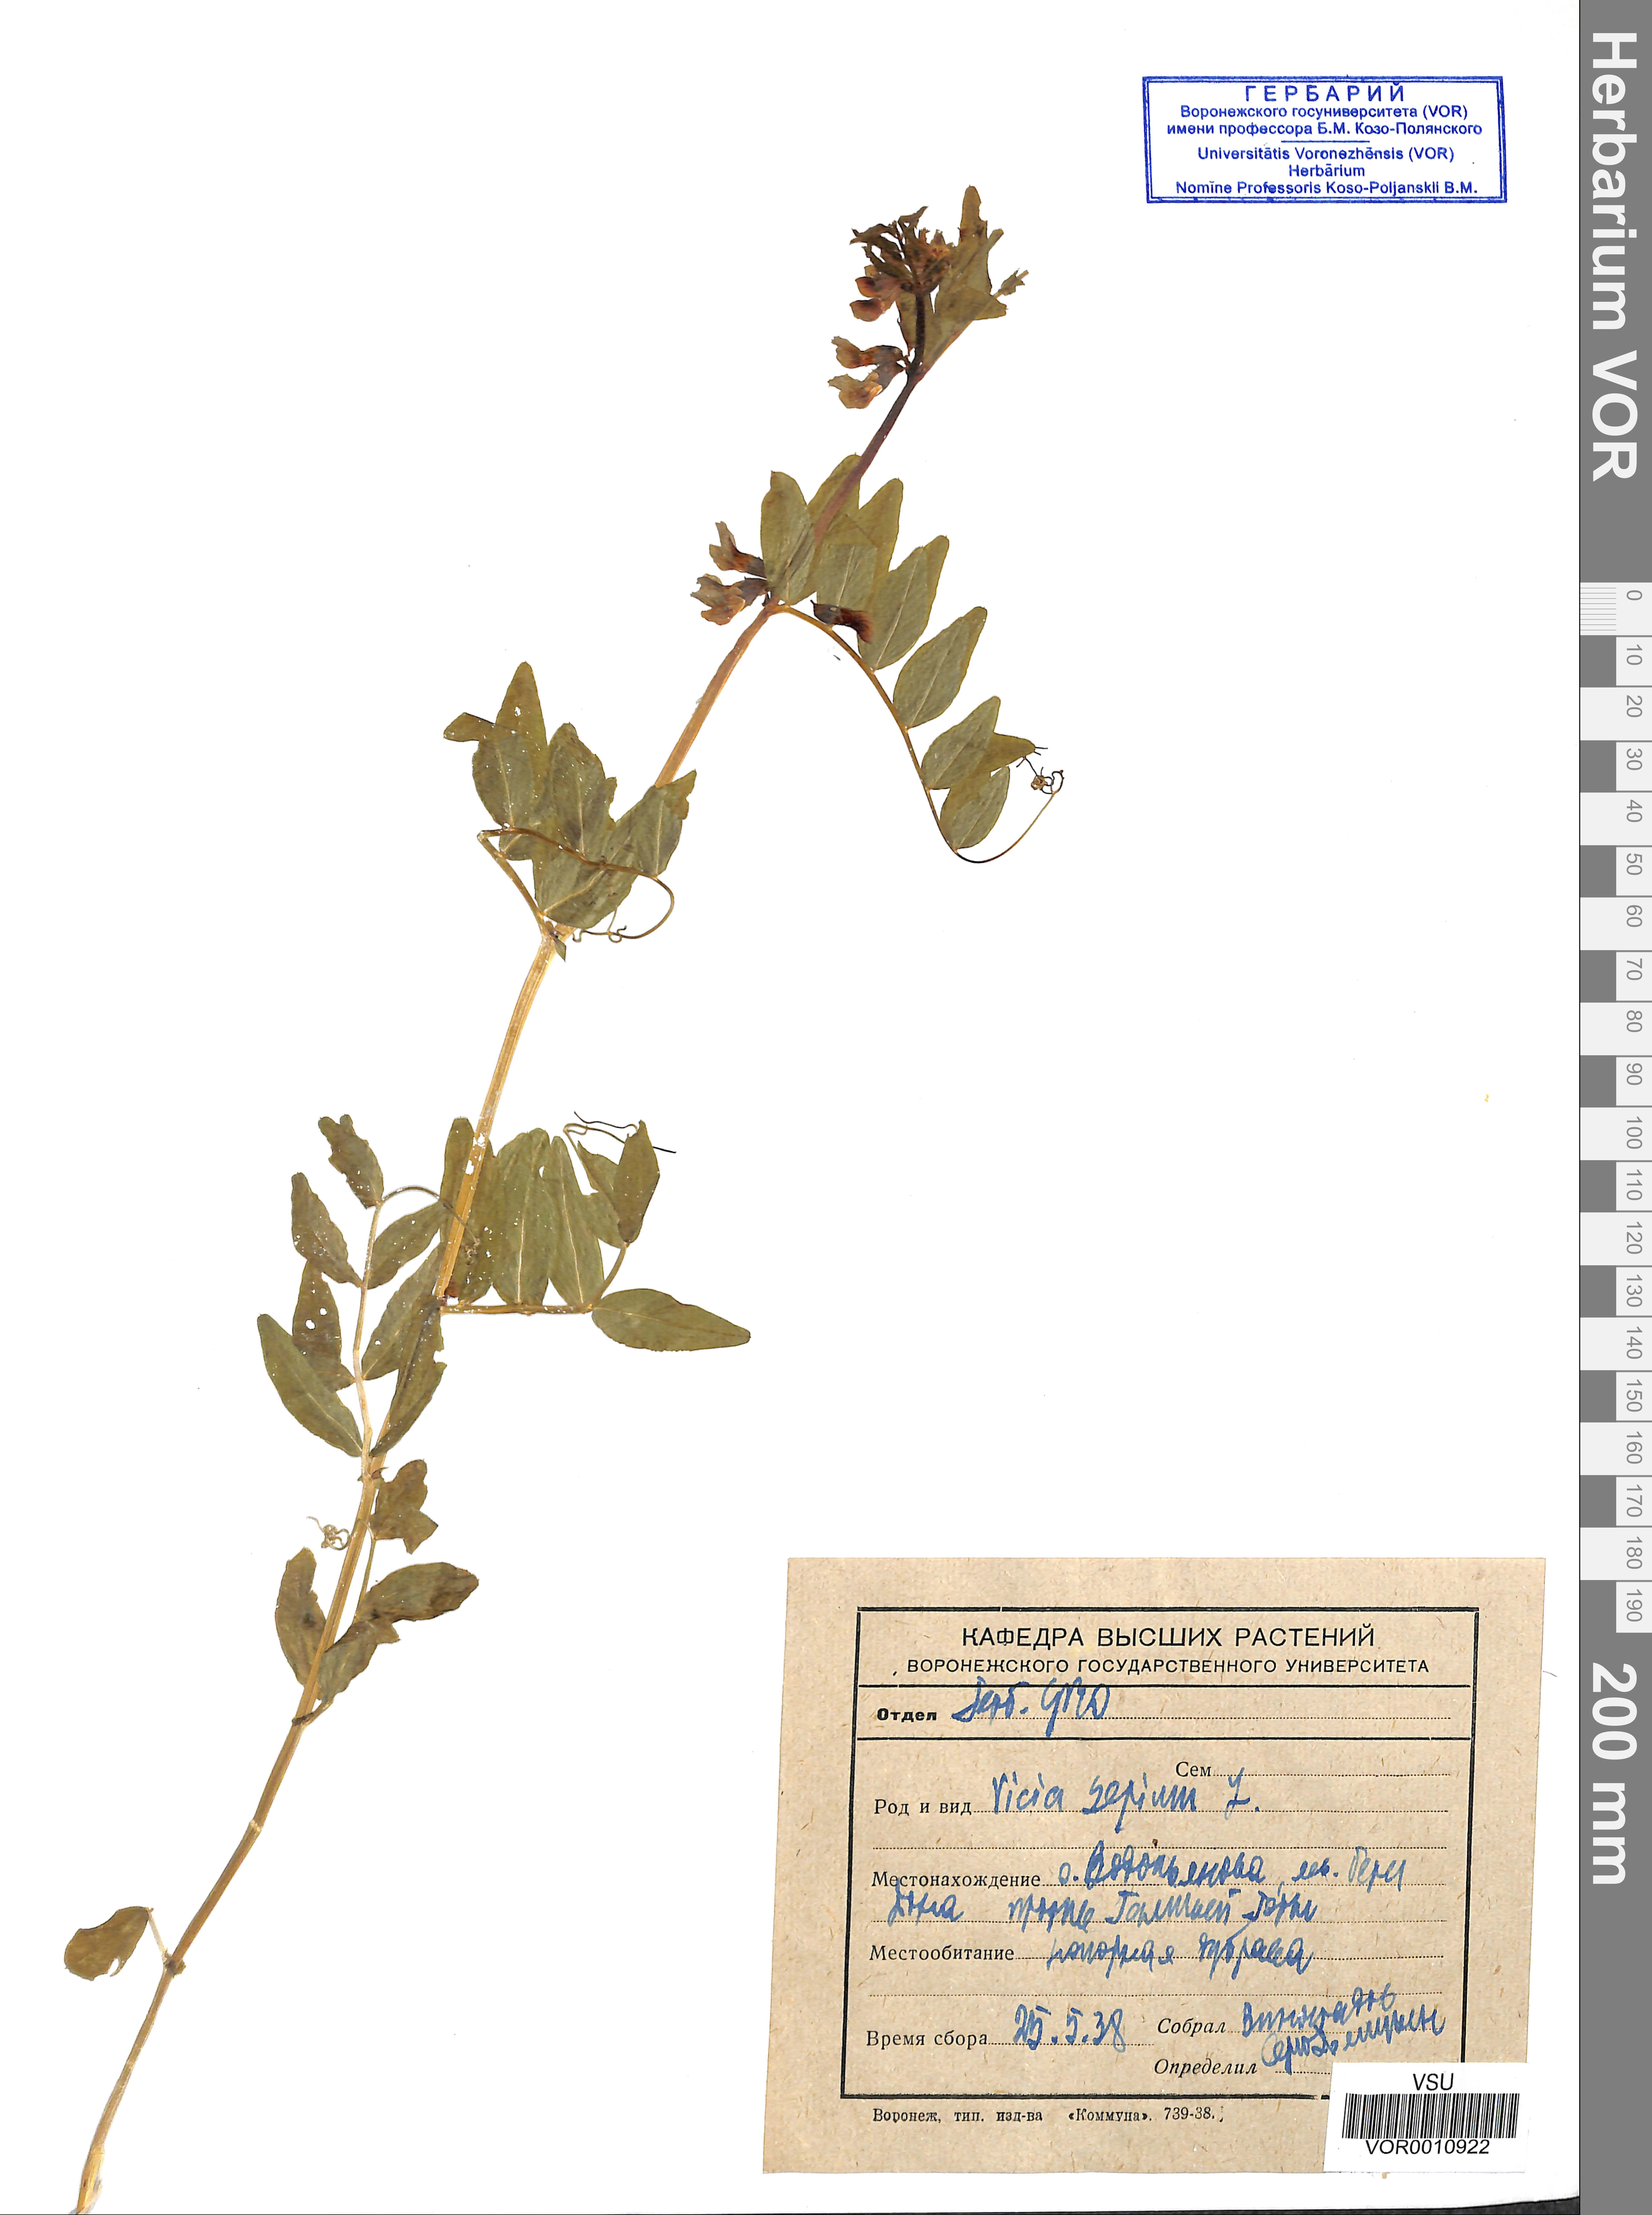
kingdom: Plantae
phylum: Tracheophyta
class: Magnoliopsida
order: Fabales
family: Fabaceae
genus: Vicia
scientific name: Vicia sepium
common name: Bush vetch
